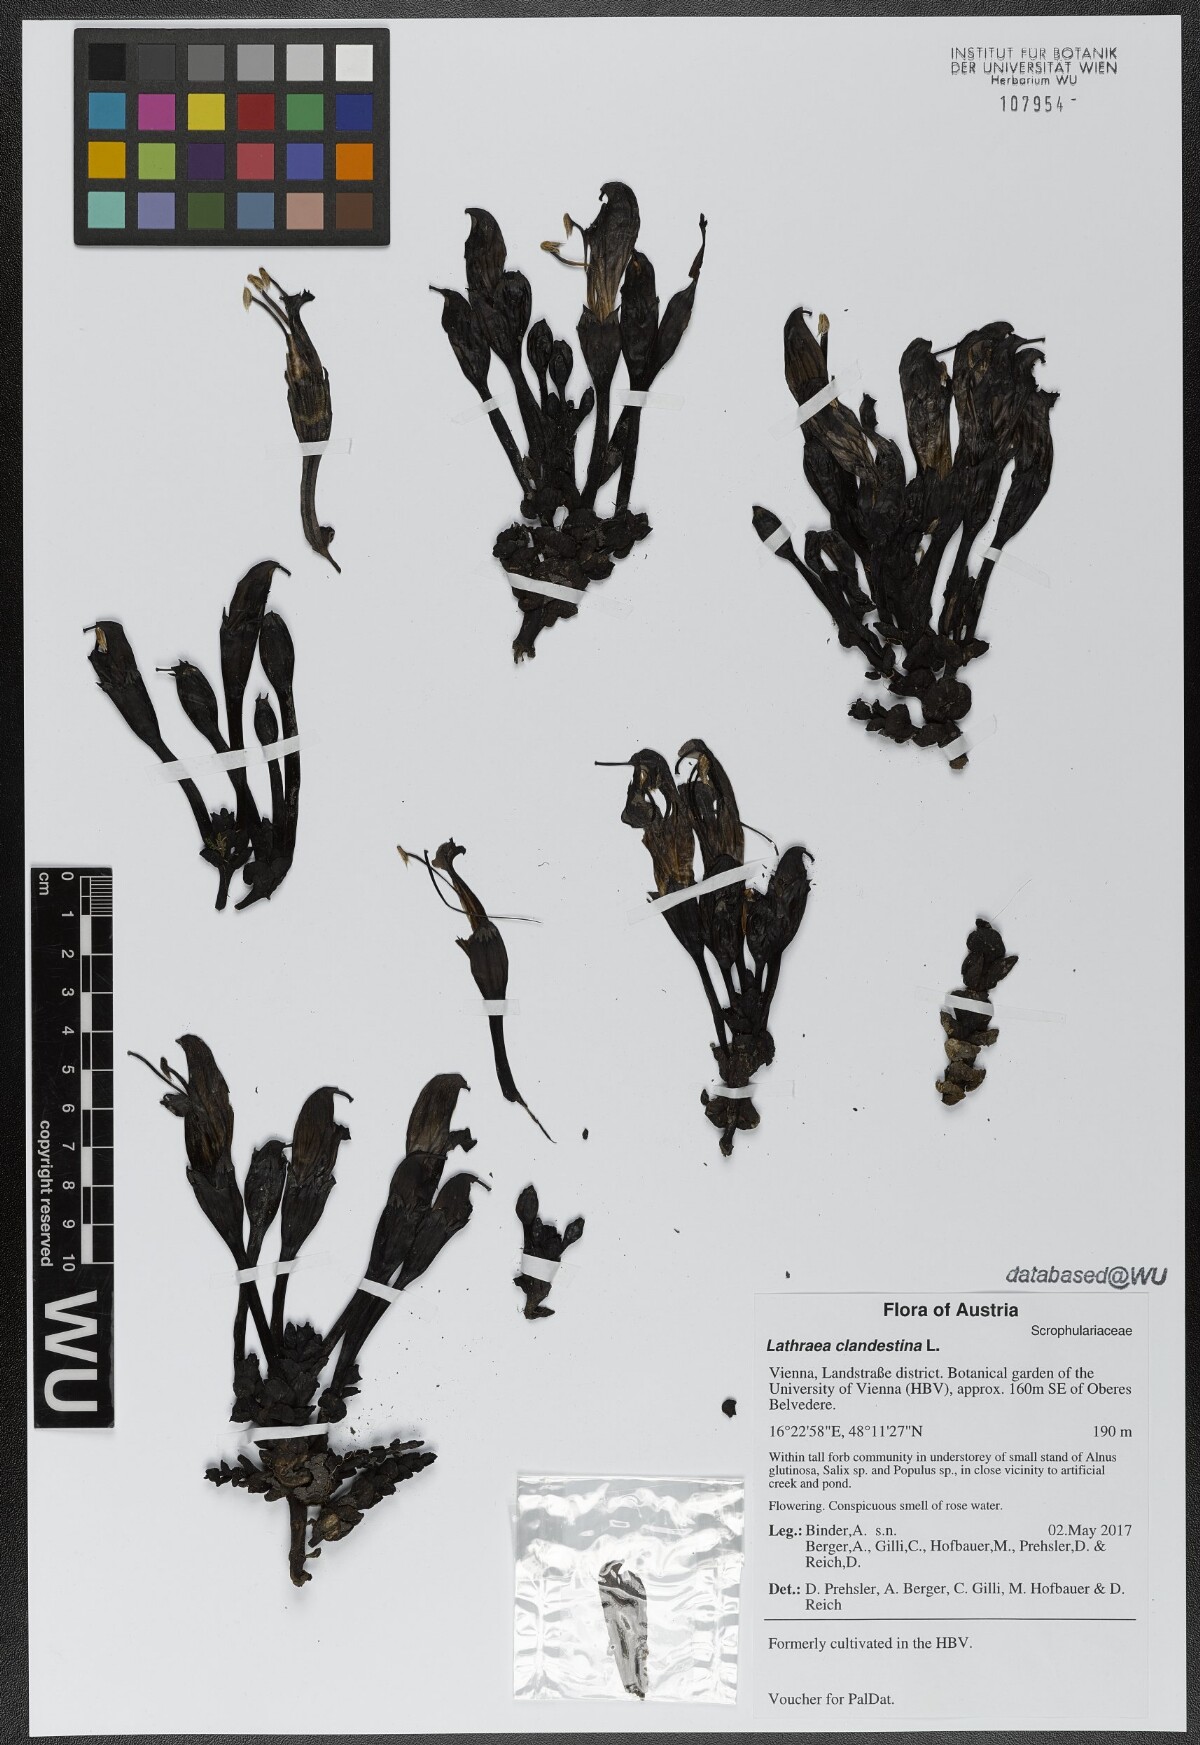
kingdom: Plantae
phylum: Tracheophyta
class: Magnoliopsida
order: Lamiales
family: Orobanchaceae
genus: Lathraea
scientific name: Lathraea clandestina
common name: Purple toothwort
